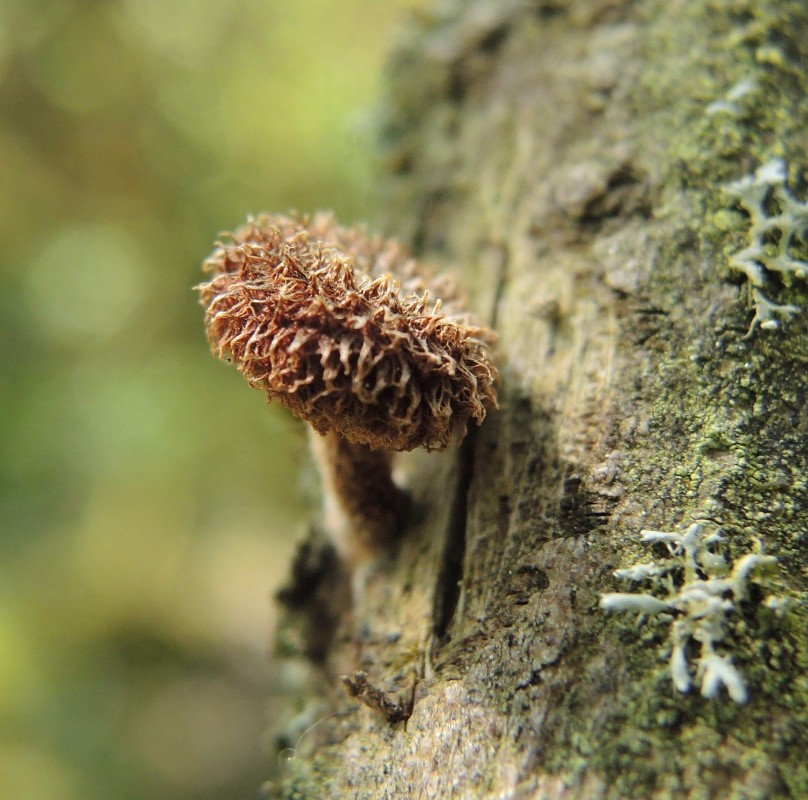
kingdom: Fungi
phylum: Basidiomycota
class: Agaricomycetes
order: Agaricales
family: Tubariaceae
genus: Phaeomarasmius
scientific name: Phaeomarasmius erinaceus
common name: spidsskælhat
